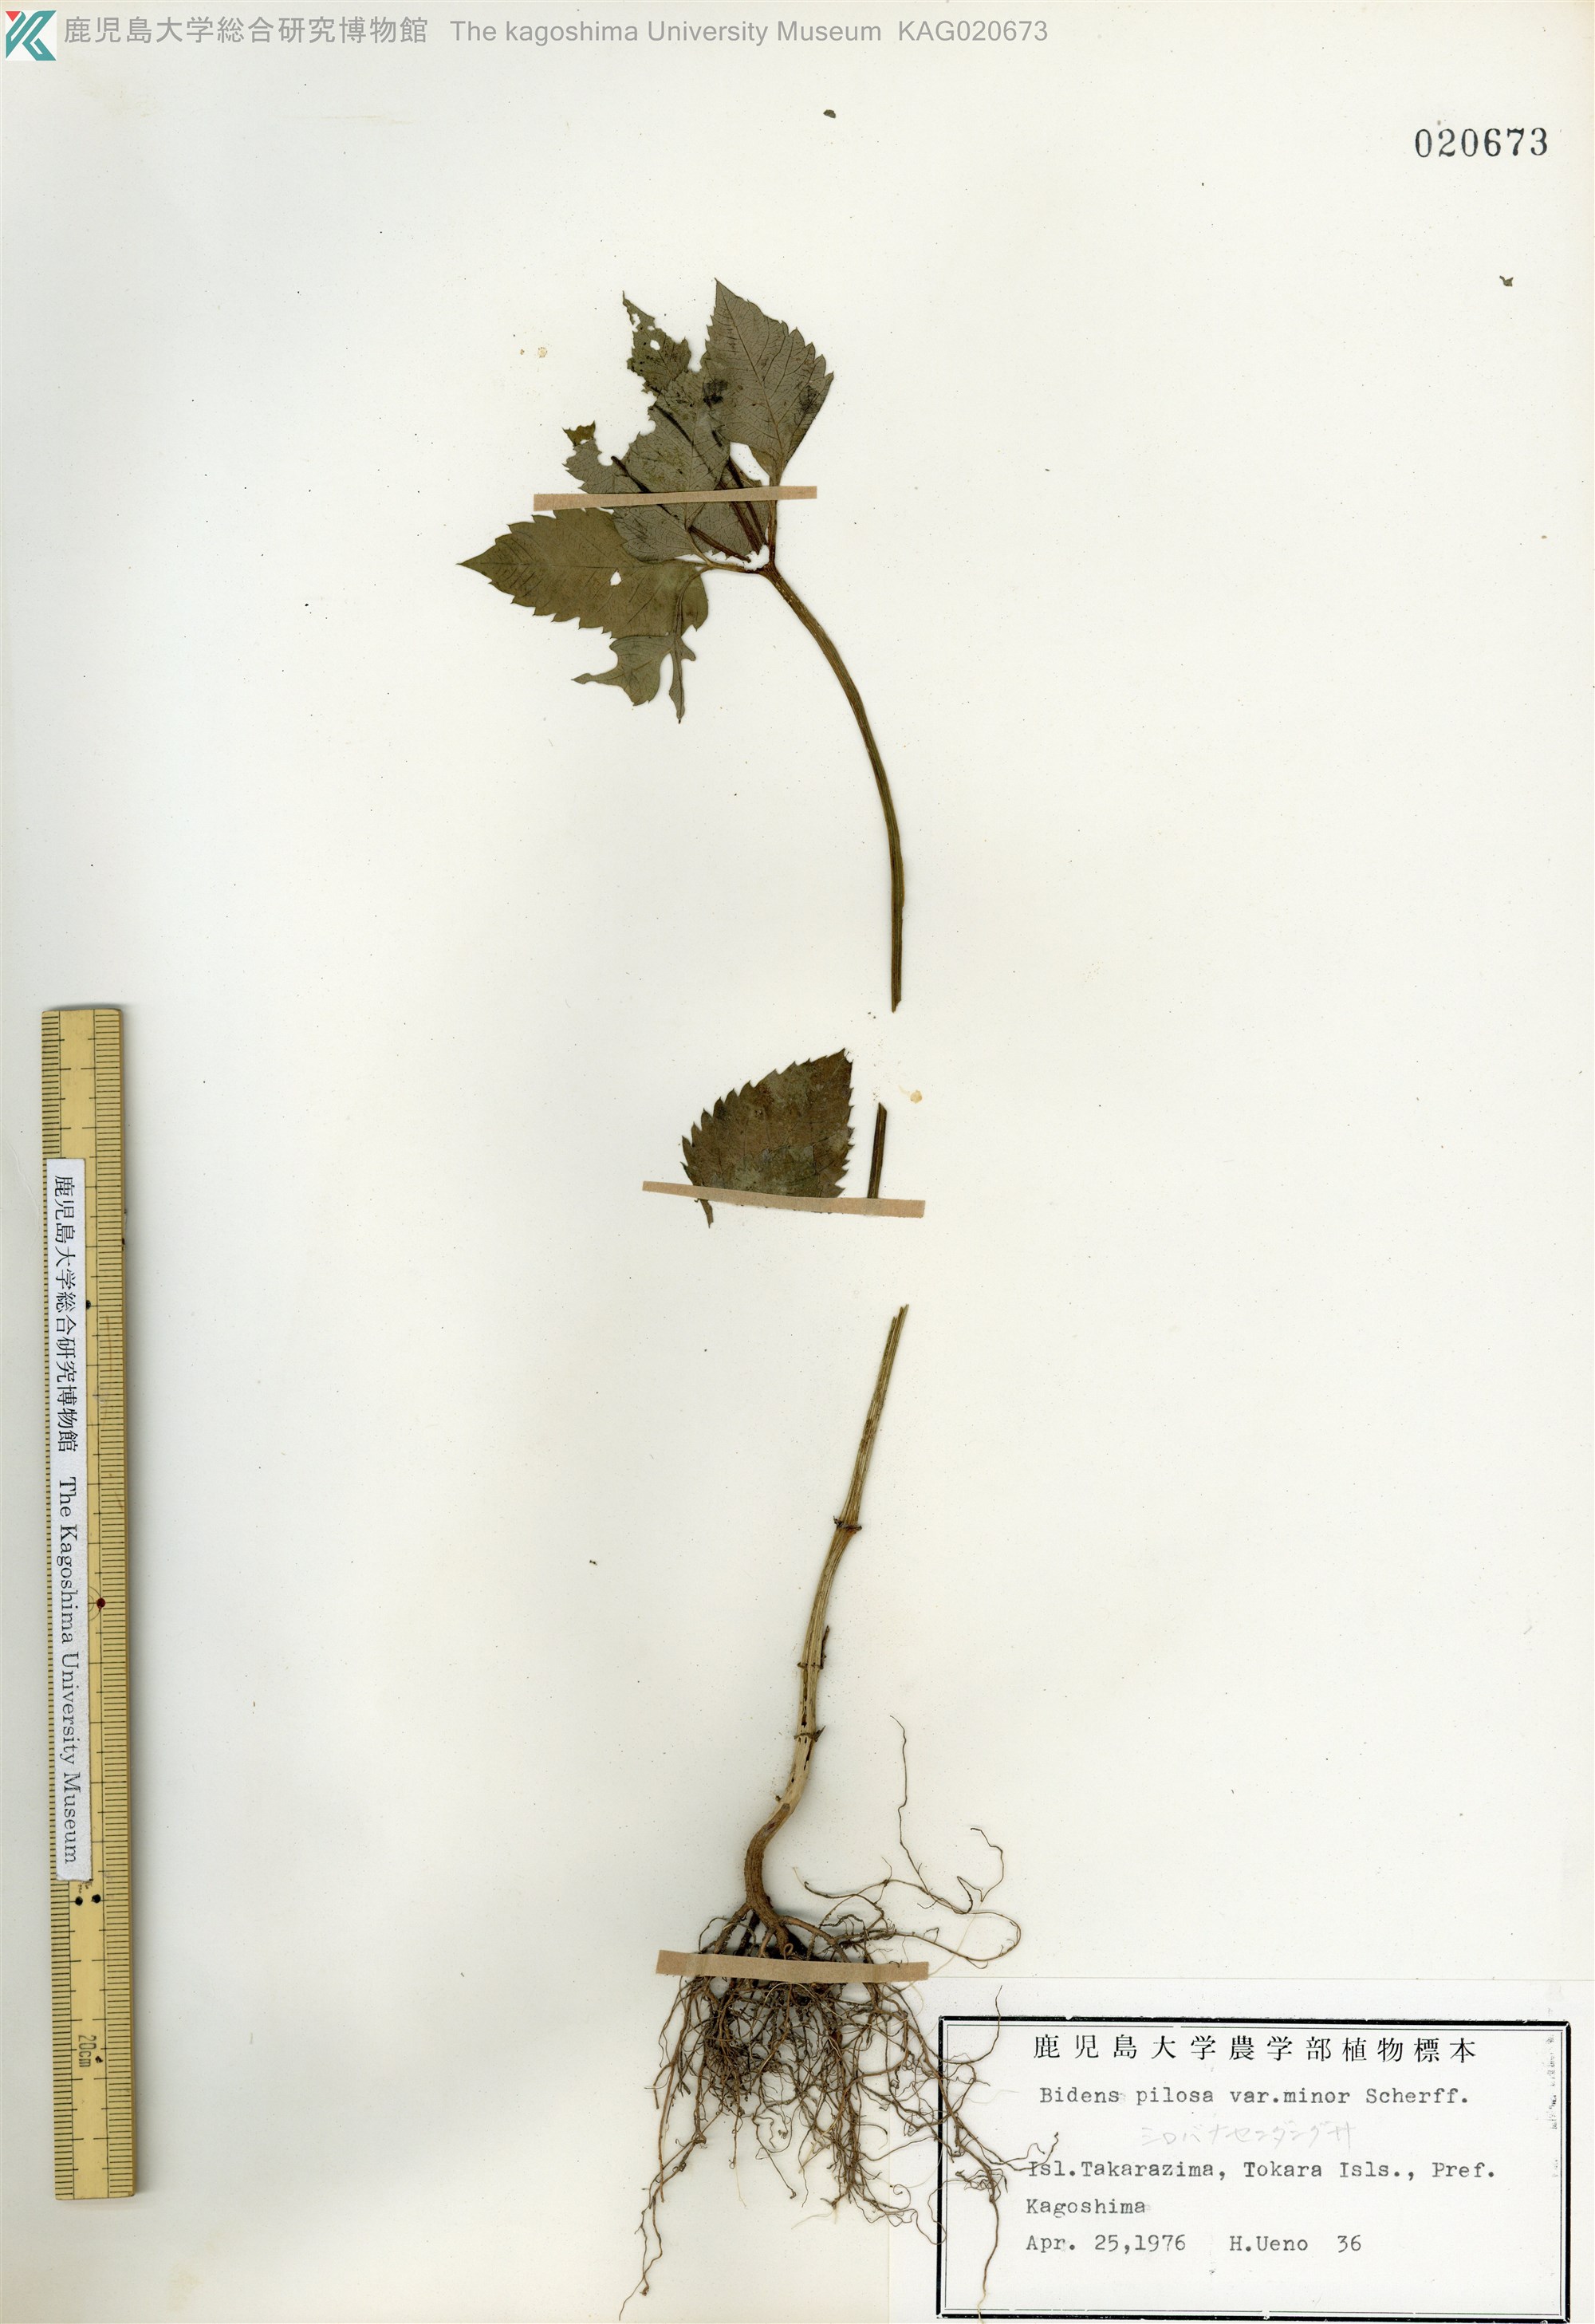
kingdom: Plantae
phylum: Tracheophyta
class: Magnoliopsida
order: Asterales
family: Asteraceae
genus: Bidens
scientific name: Bidens pilosa
